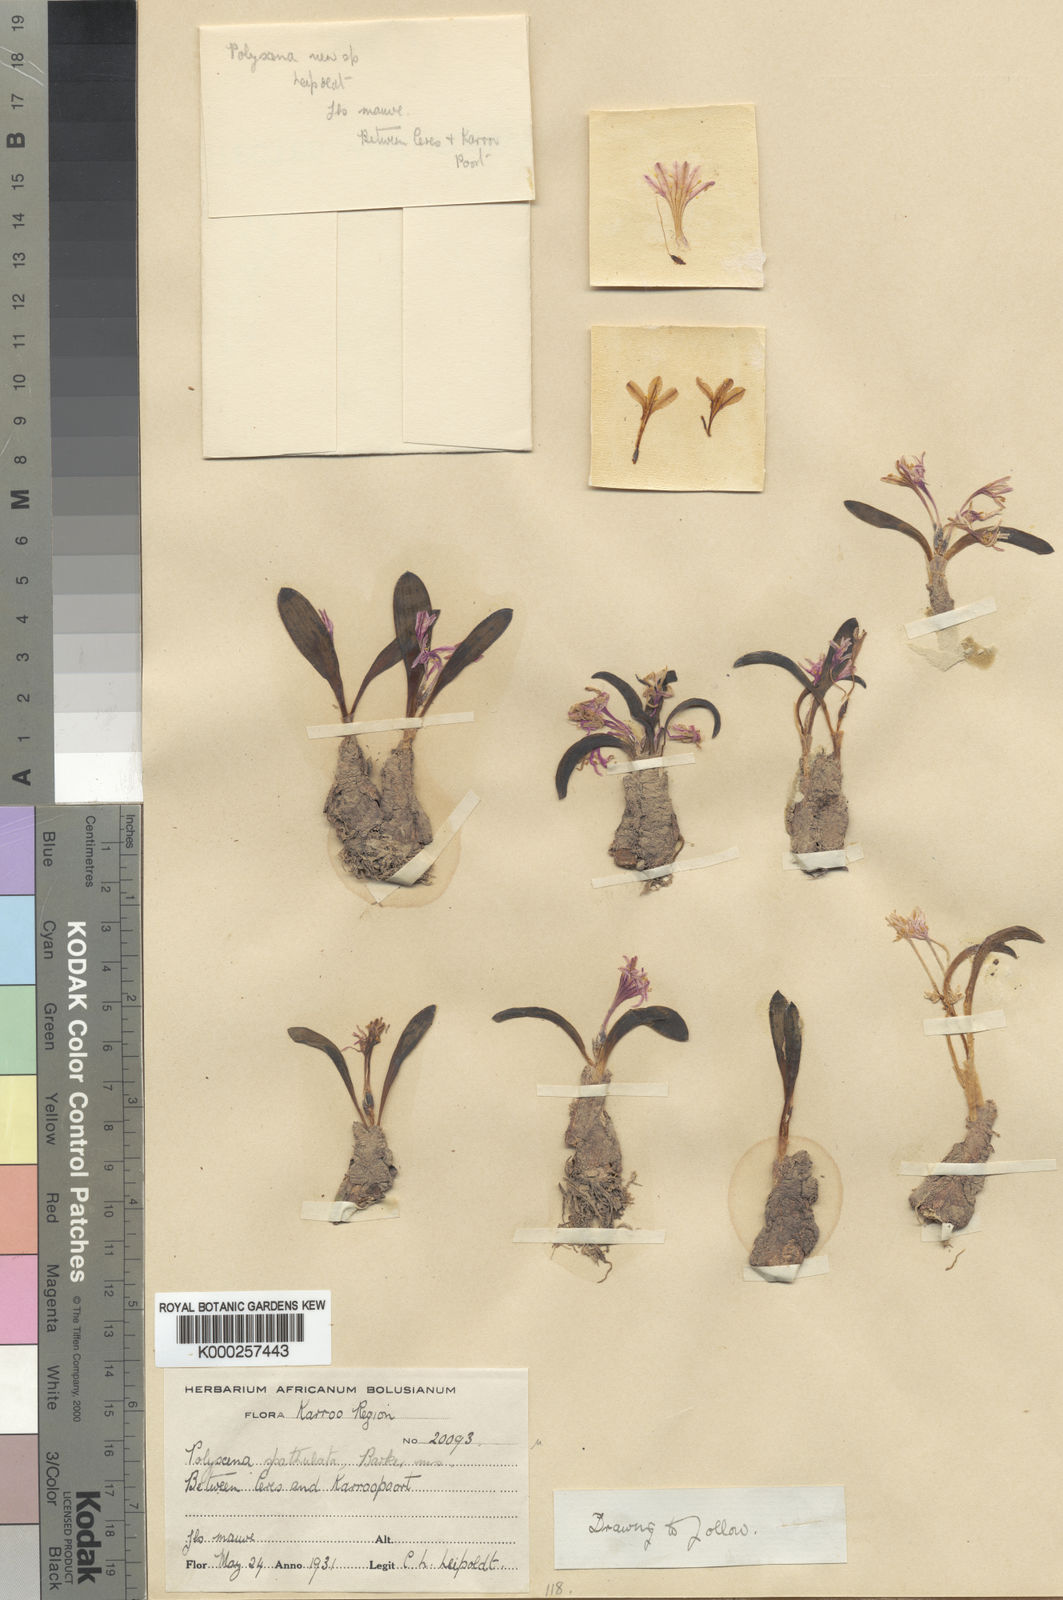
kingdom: Plantae
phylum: Tracheophyta
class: Liliopsida
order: Asparagales
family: Asparagaceae
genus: Lachenalia
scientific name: Lachenalia
